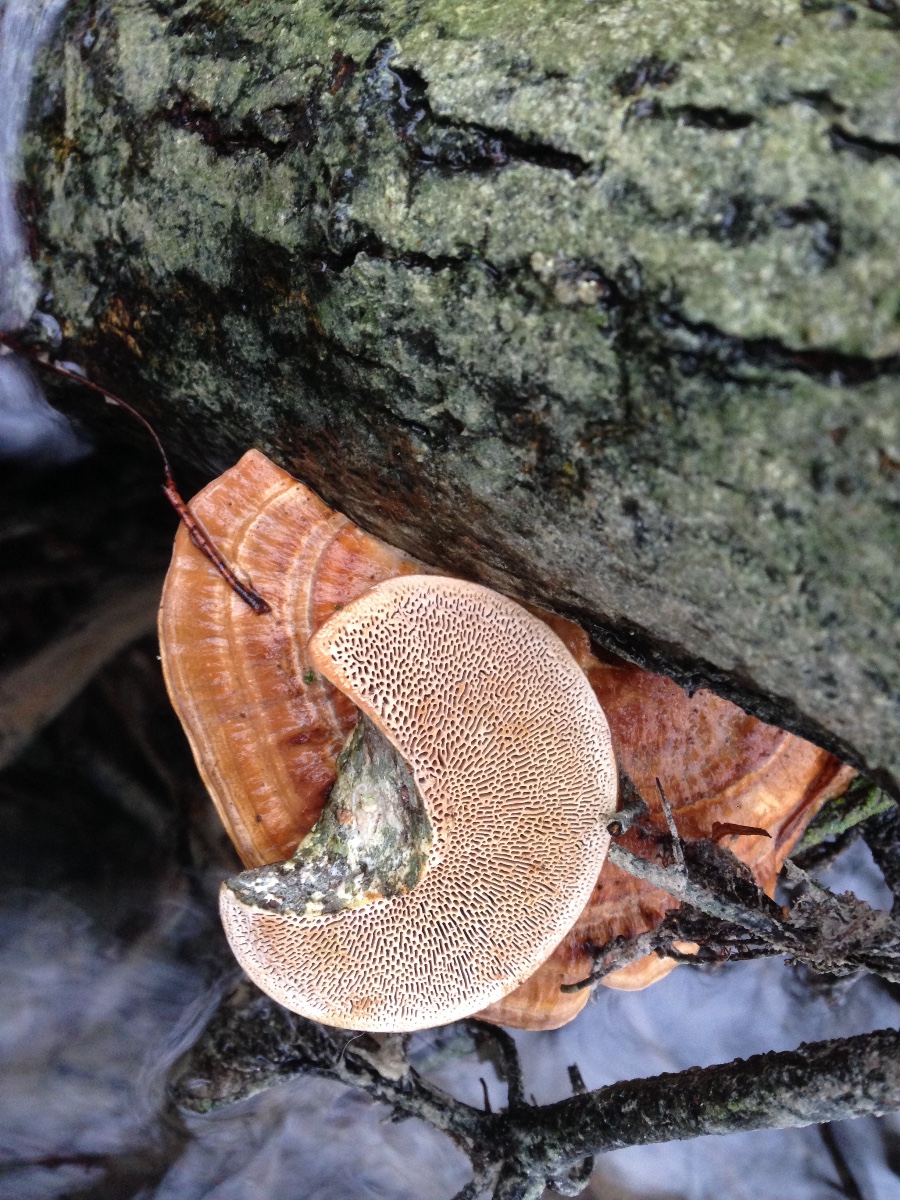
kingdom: Fungi
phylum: Basidiomycota
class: Agaricomycetes
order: Polyporales
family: Polyporaceae
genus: Daedaleopsis
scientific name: Daedaleopsis confragosa
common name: rødmende læderporesvamp
